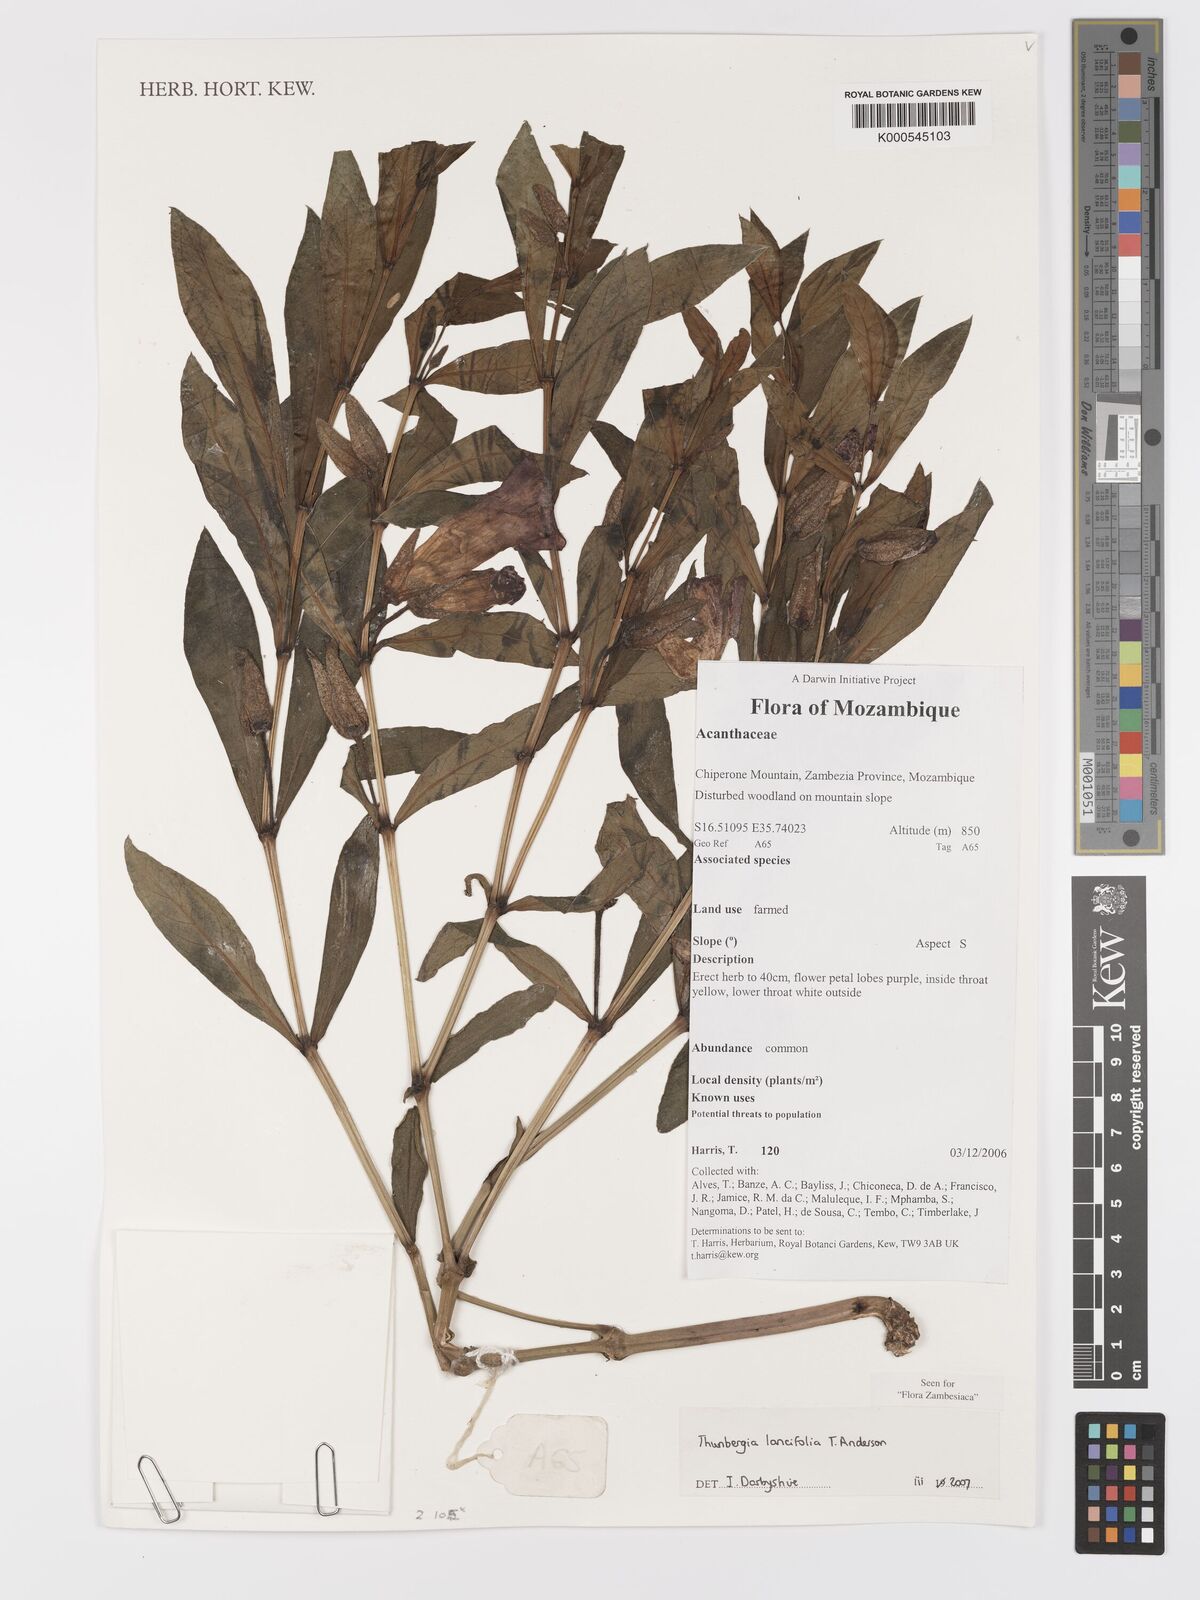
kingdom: Plantae
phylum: Tracheophyta
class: Magnoliopsida
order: Lamiales
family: Acanthaceae
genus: Thunbergia
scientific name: Thunbergia lancifolia
